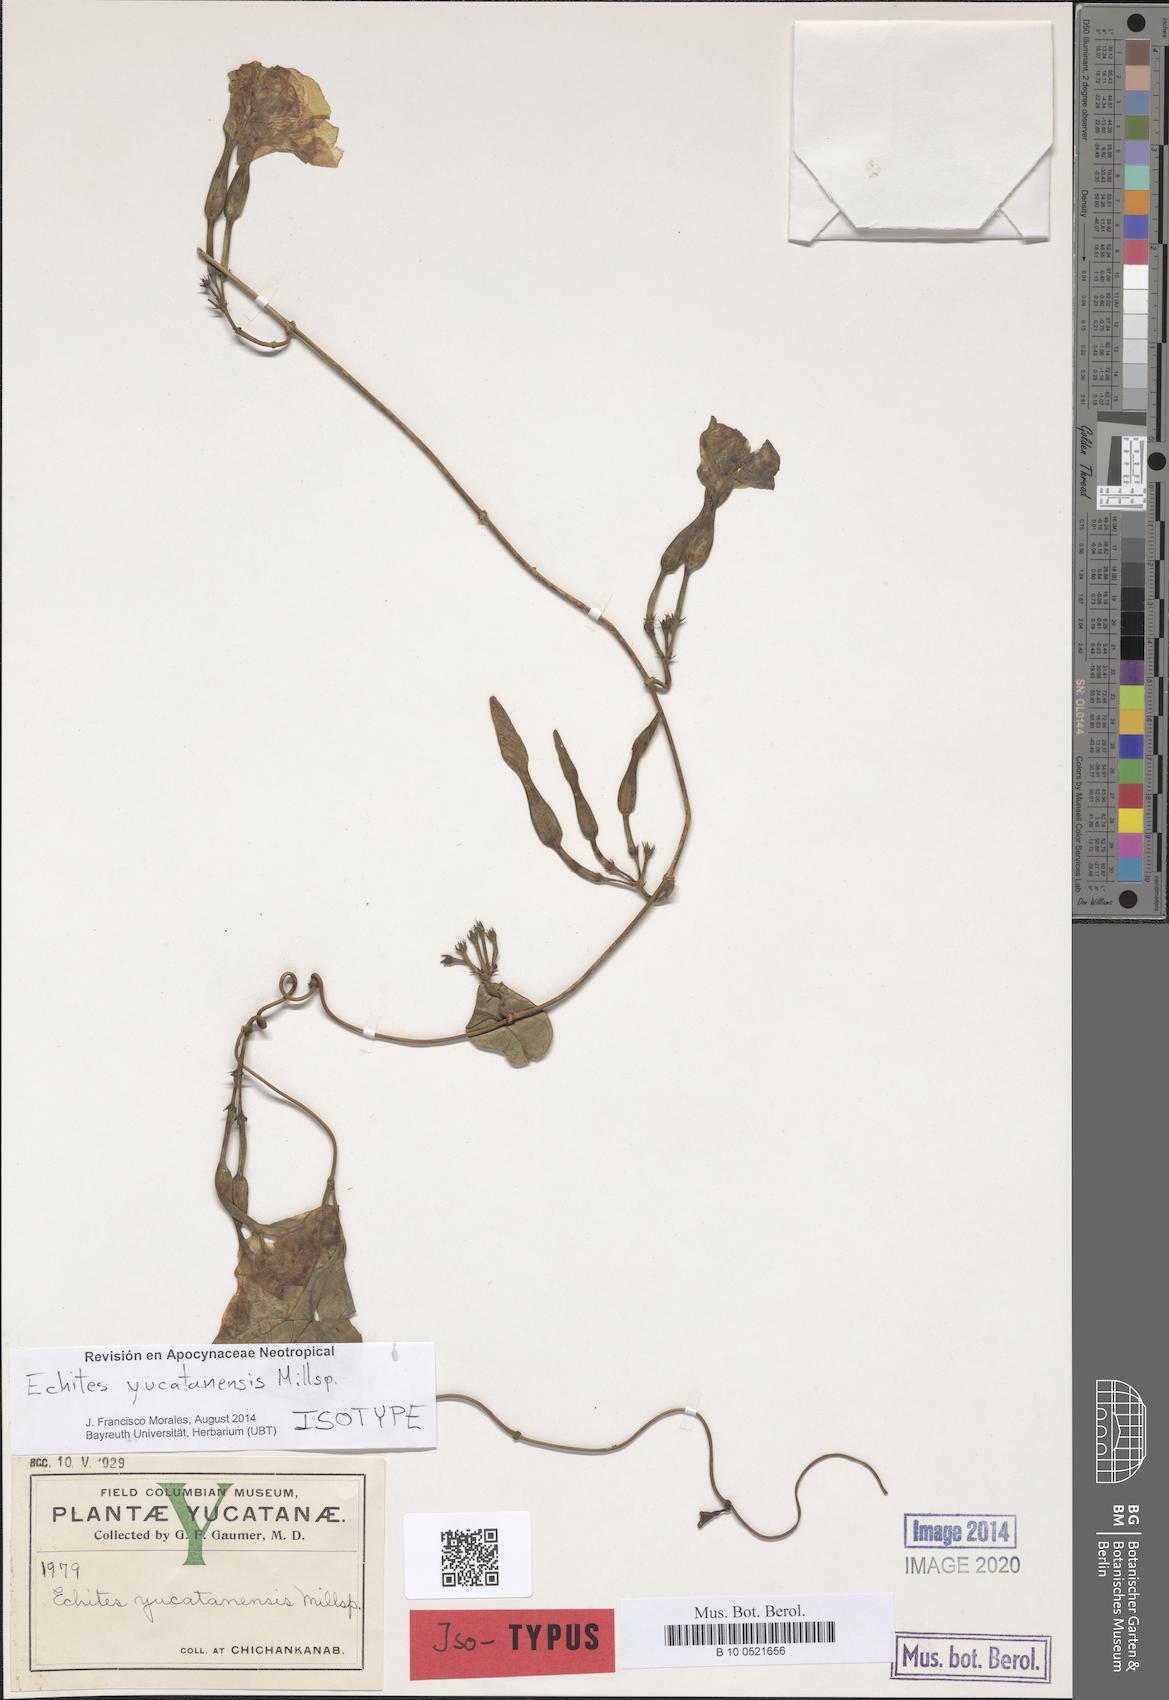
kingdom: Plantae
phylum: Tracheophyta
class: Magnoliopsida
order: Gentianales
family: Apocynaceae
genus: Echites
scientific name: Echites yucatanensis
